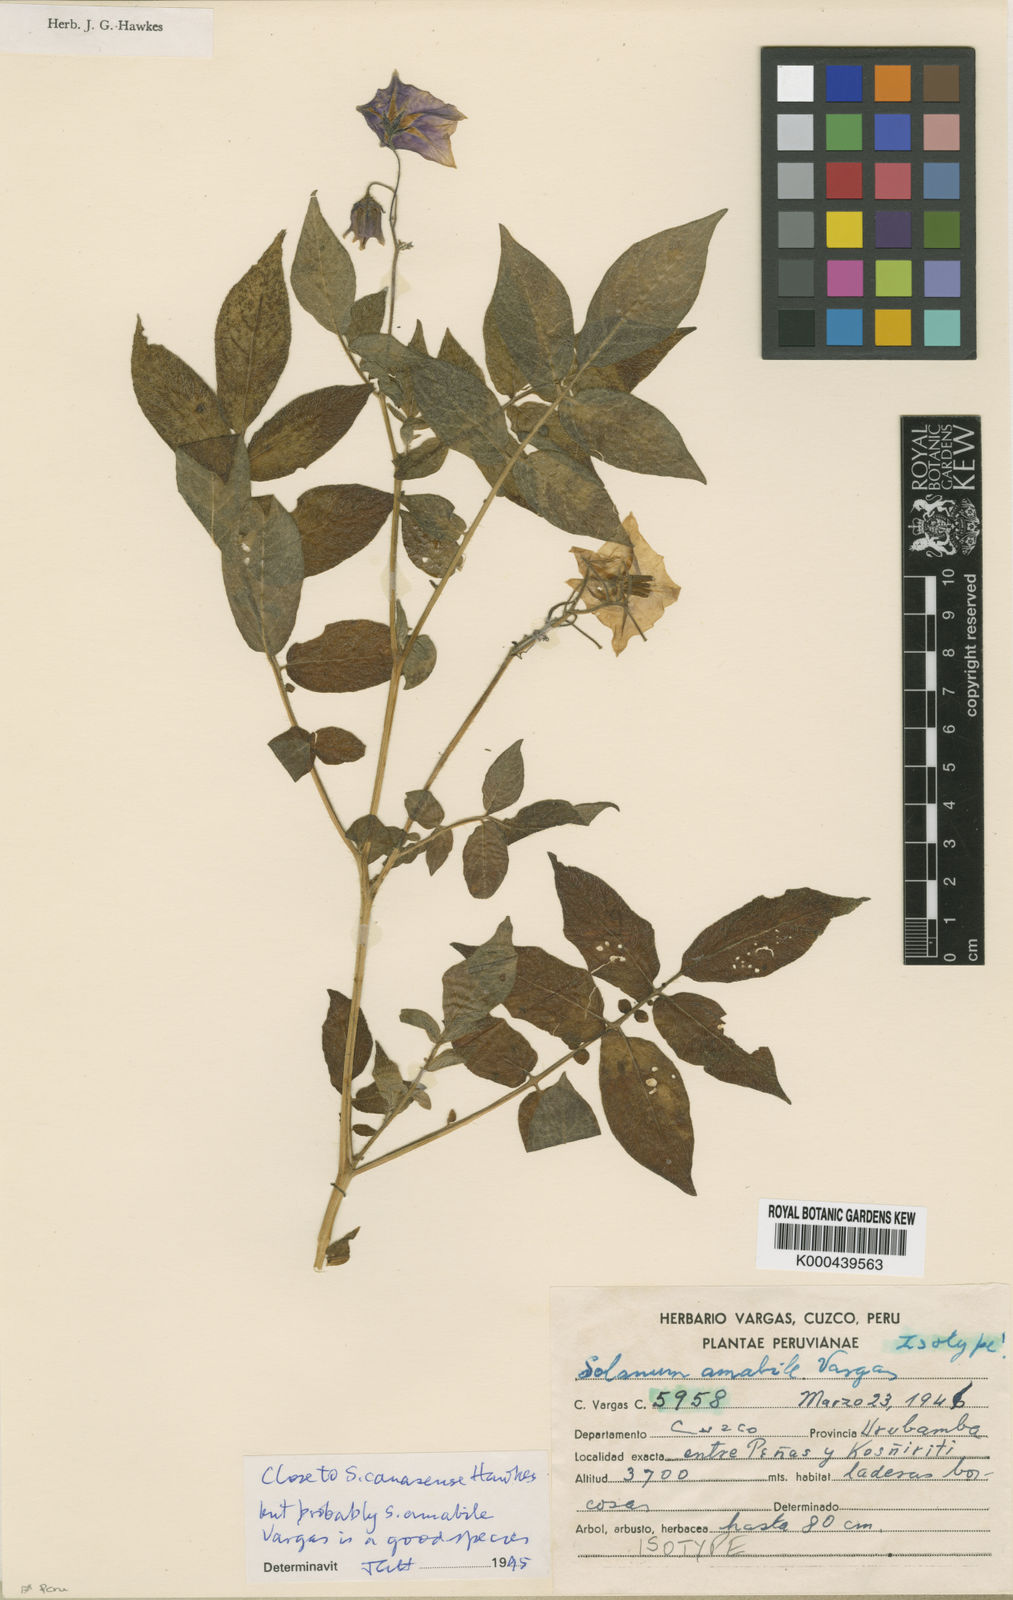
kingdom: Plantae
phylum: Tracheophyta
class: Magnoliopsida
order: Solanales
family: Solanaceae
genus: Solanum
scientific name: Solanum candolleanum
